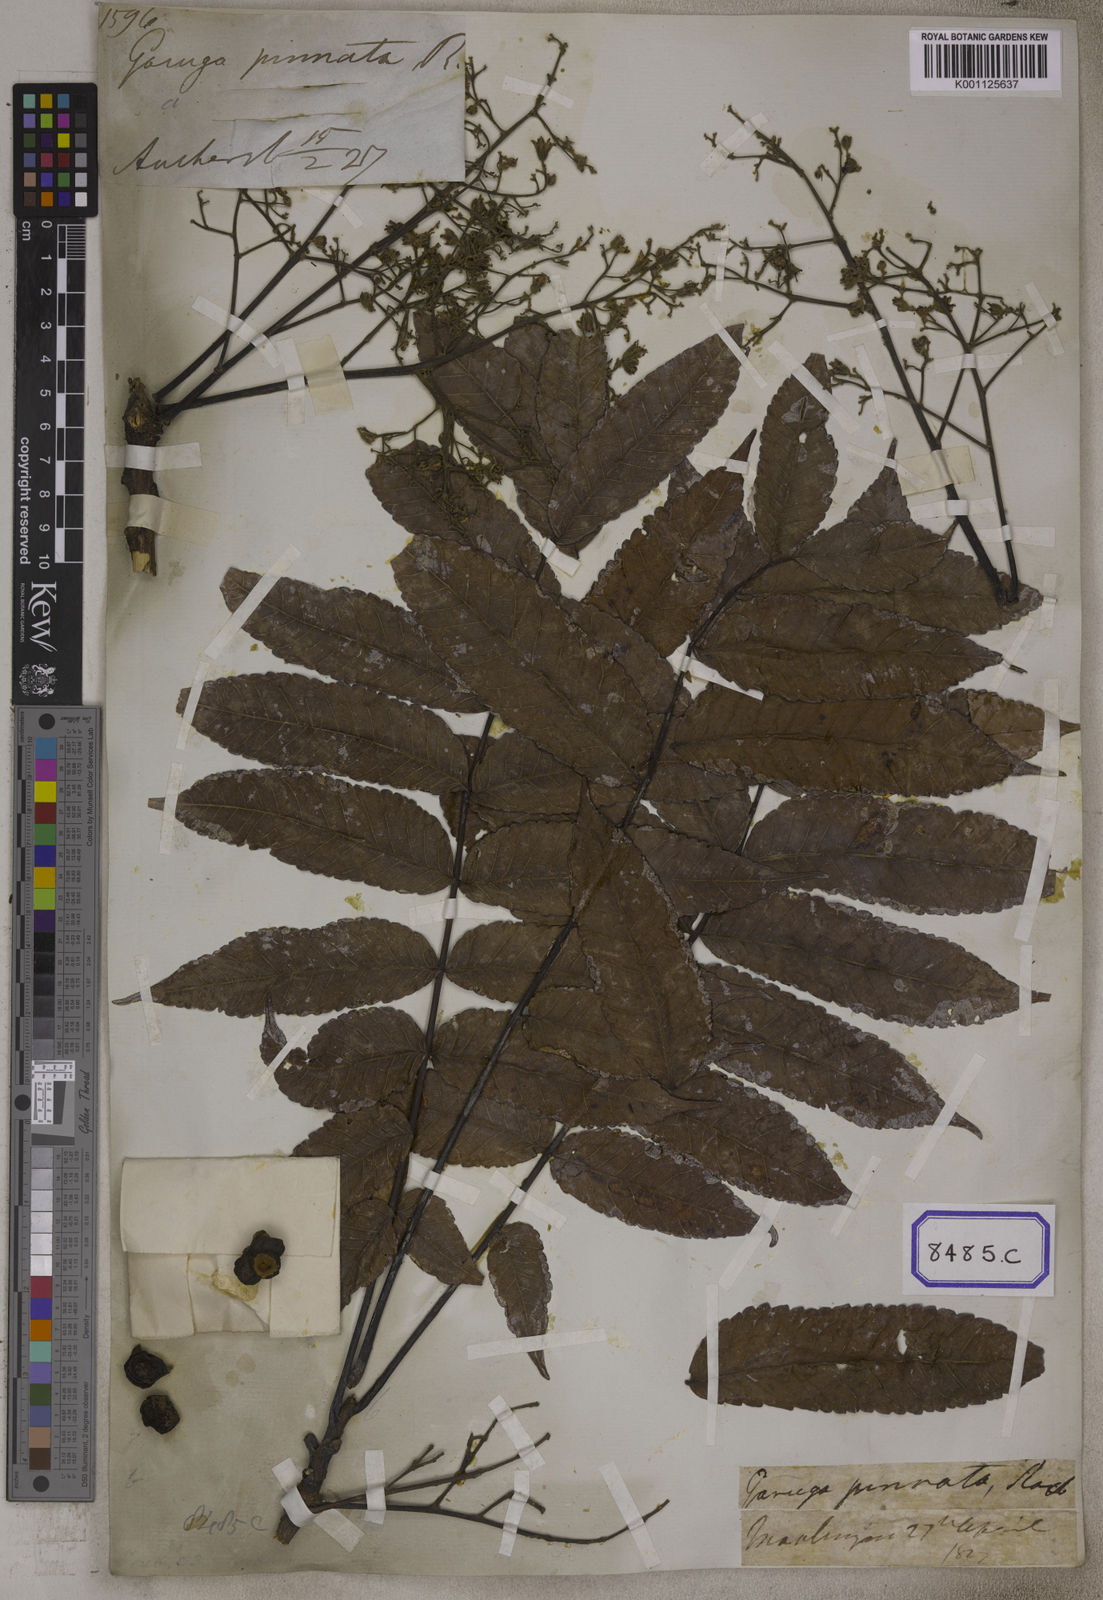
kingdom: Plantae
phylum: Tracheophyta
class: Magnoliopsida
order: Sapindales
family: Burseraceae
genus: Garuga
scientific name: Garuga pinnata
